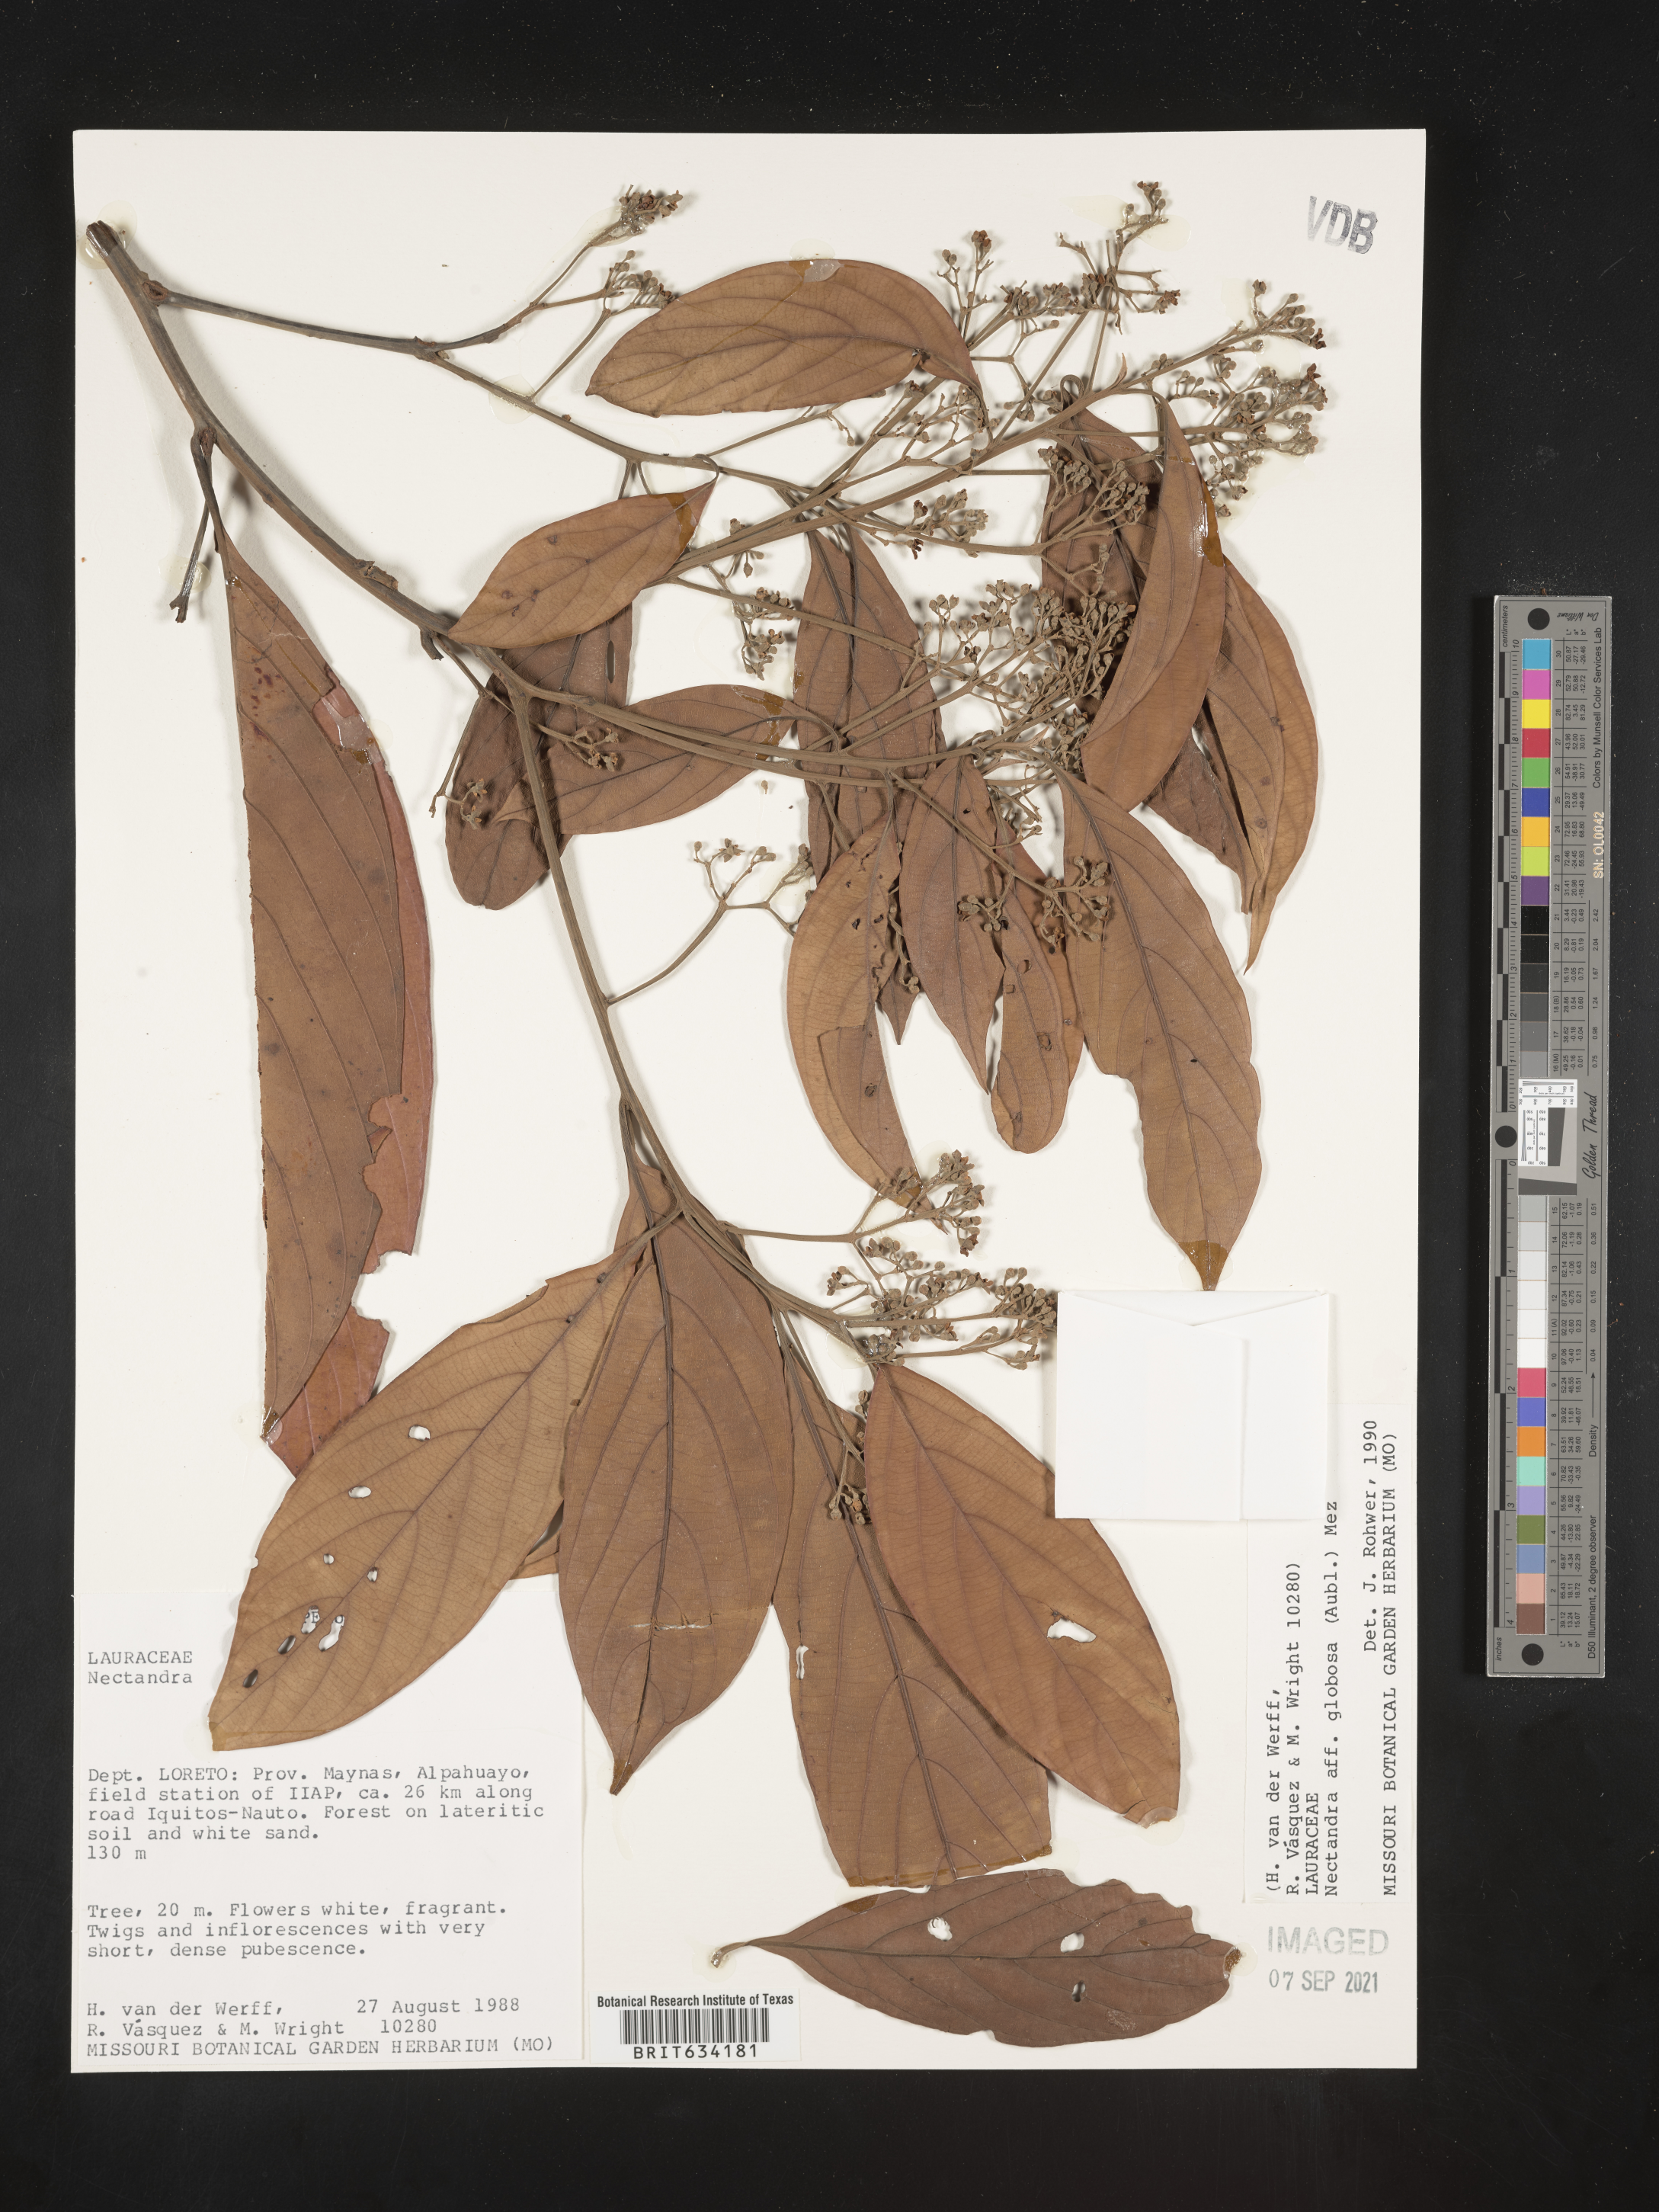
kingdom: Plantae
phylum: Tracheophyta
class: Magnoliopsida
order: Laurales
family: Lauraceae
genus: Nectandra
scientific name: Nectandra
